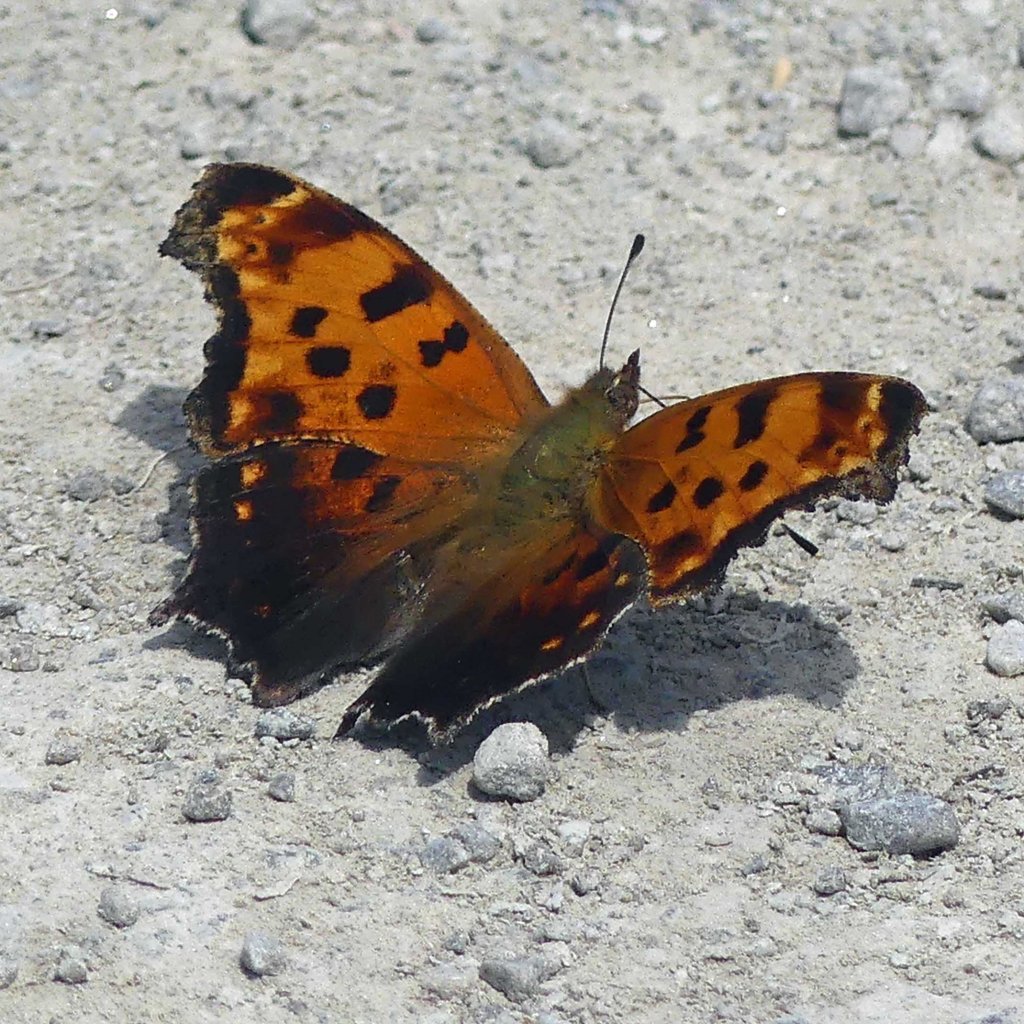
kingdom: Animalia
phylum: Arthropoda
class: Insecta
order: Lepidoptera
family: Nymphalidae
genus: Polygonia
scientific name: Polygonia comma
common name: Eastern Comma
